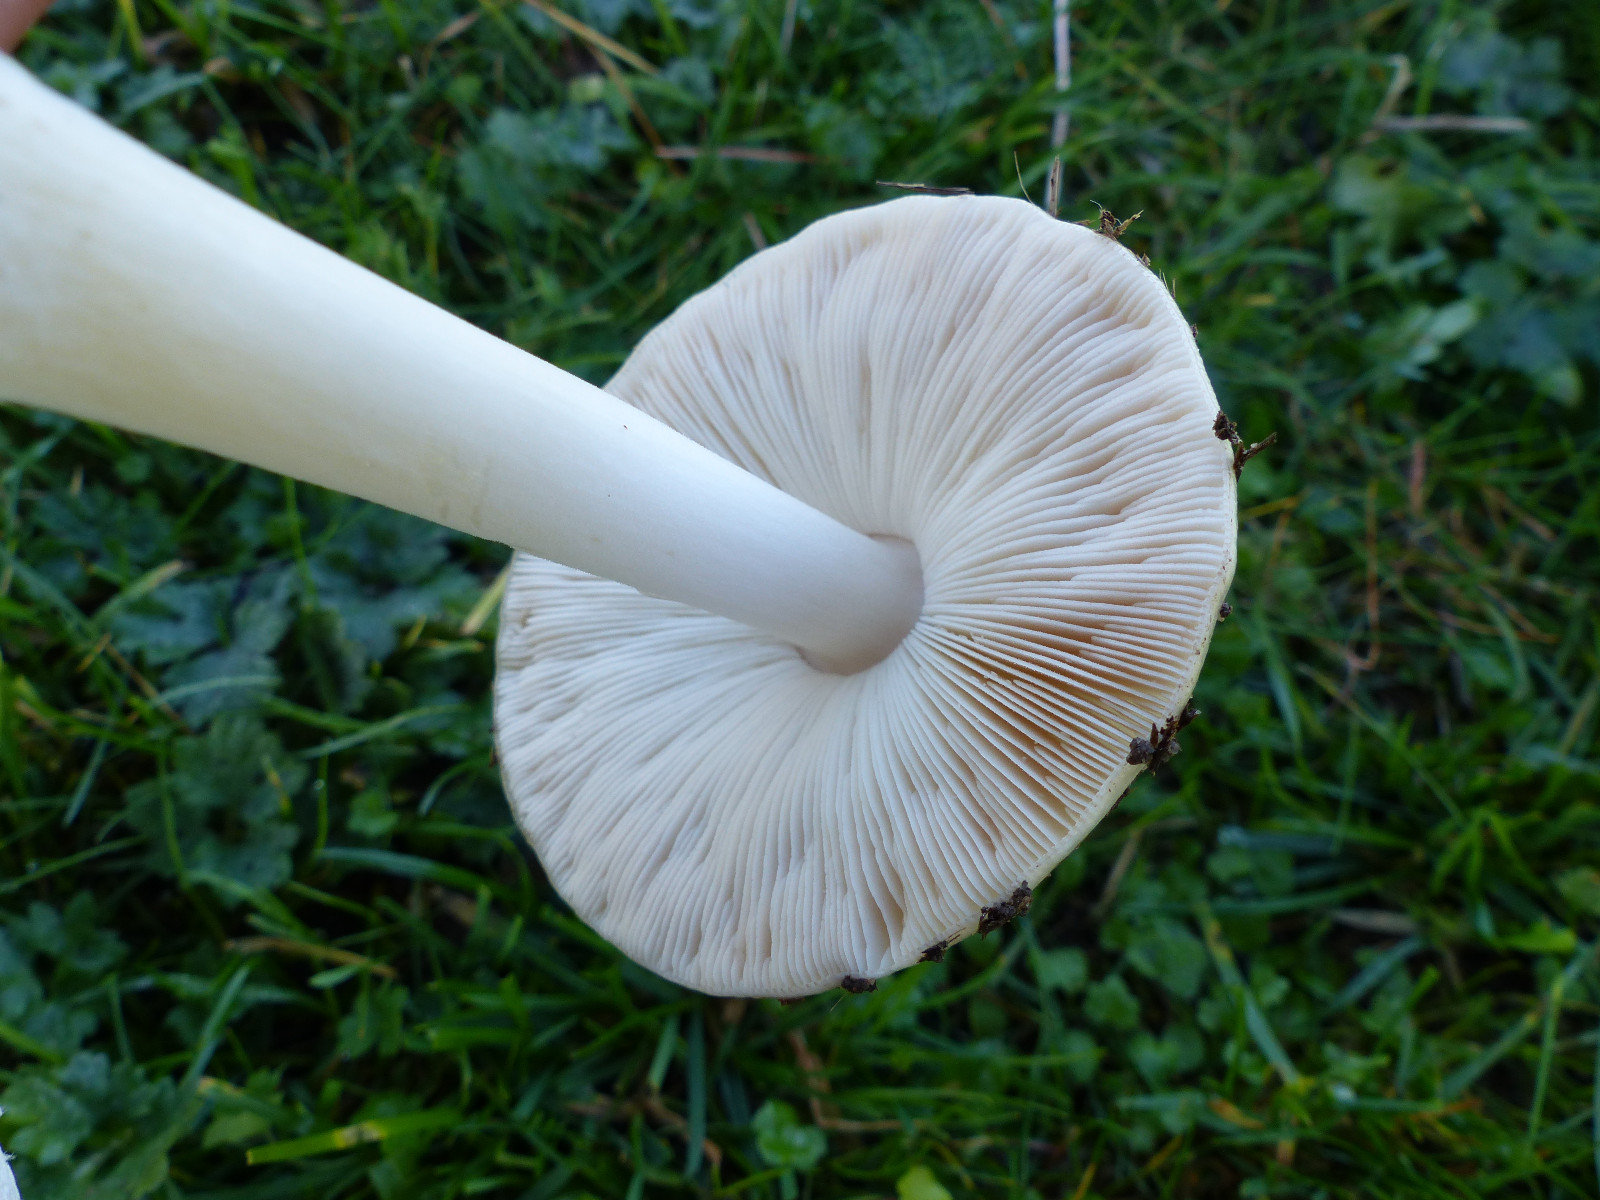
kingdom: Fungi
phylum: Basidiomycota
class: Agaricomycetes
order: Agaricales
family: Pluteaceae
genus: Volvopluteus
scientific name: Volvopluteus gloiocephalus
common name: høj posesvamp
